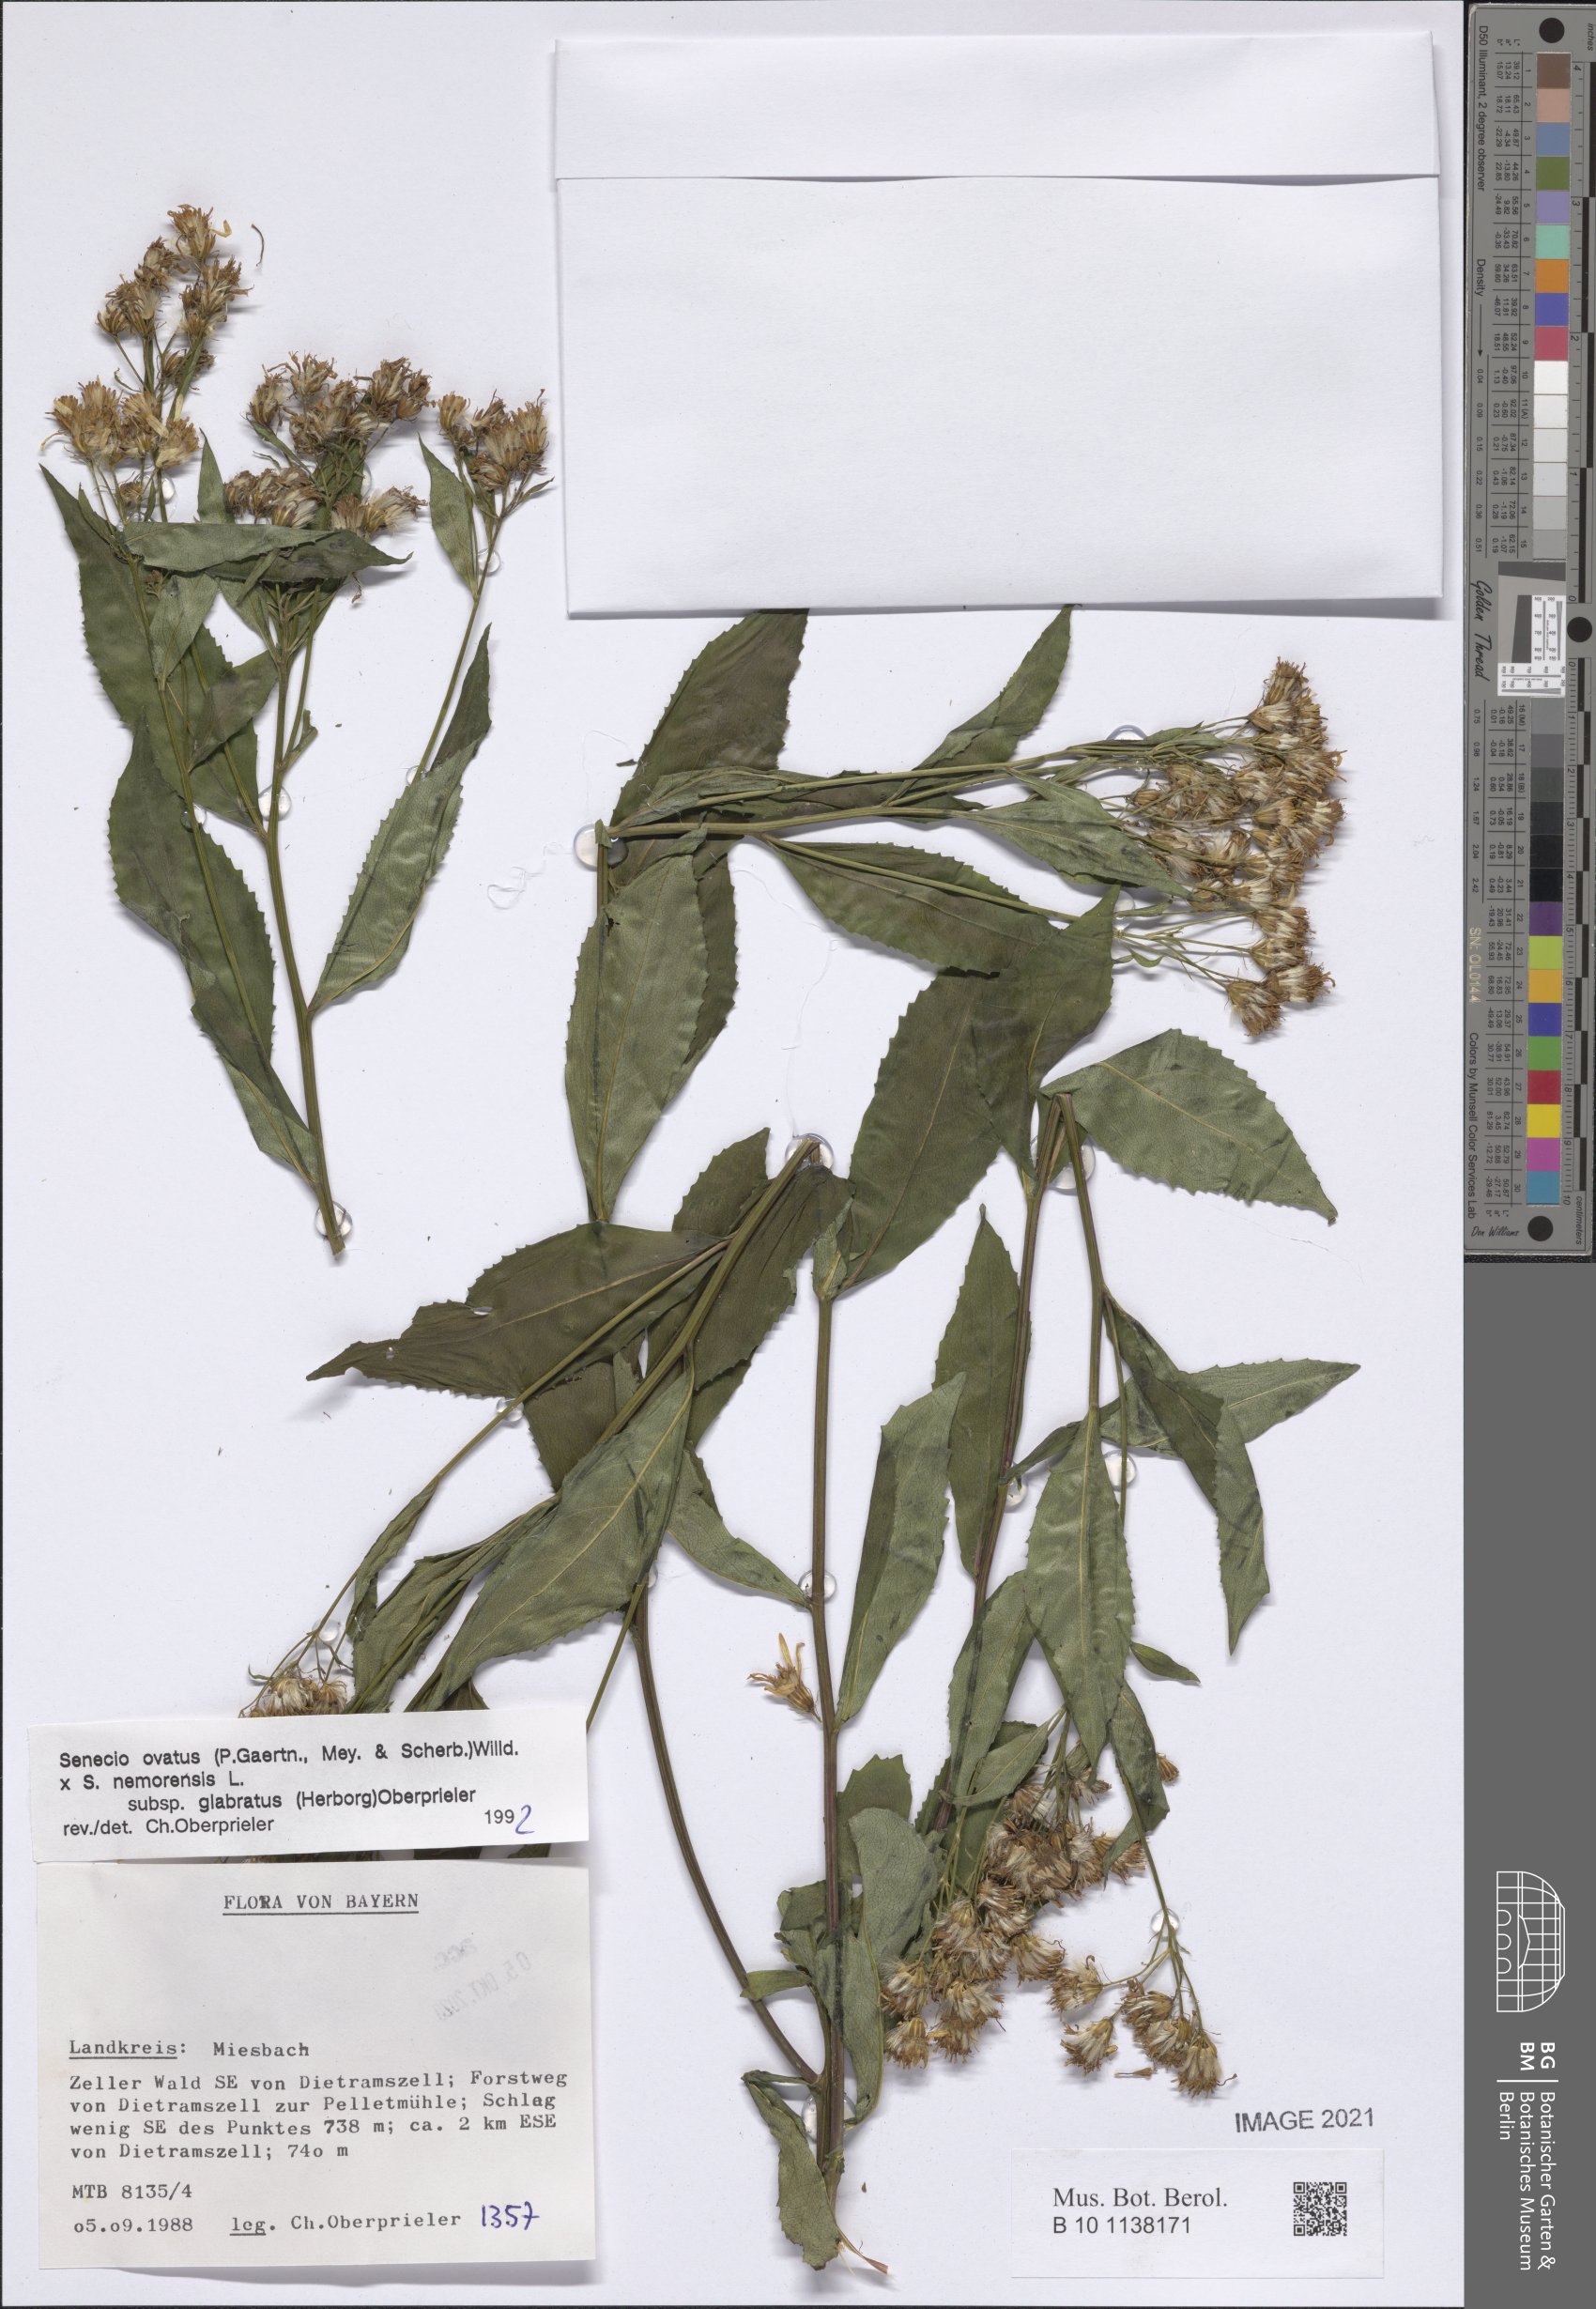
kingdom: Plantae
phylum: Tracheophyta
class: Magnoliopsida
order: Asterales
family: Asteraceae
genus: Senecio
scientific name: Senecio ovatus
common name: Wood ragwort
